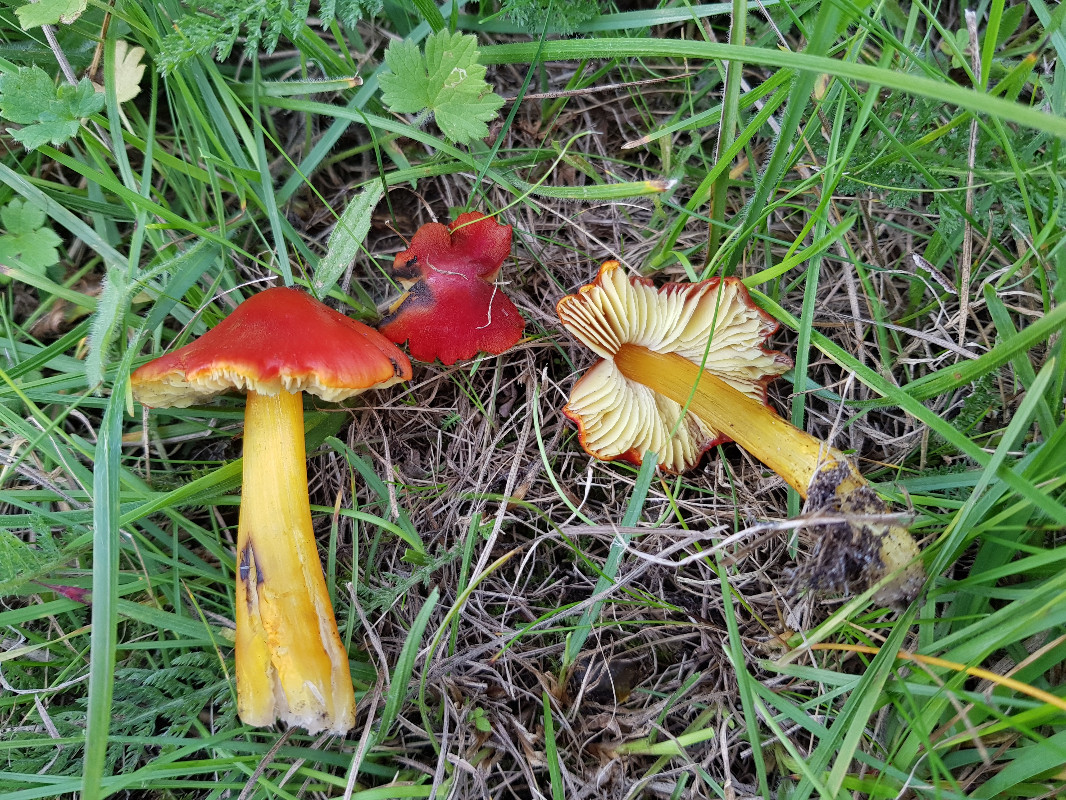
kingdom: Fungi
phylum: Basidiomycota
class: Agaricomycetes
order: Agaricales
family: Hygrophoraceae
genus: Hygrocybe
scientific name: Hygrocybe conica
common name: kegle-vokshat
